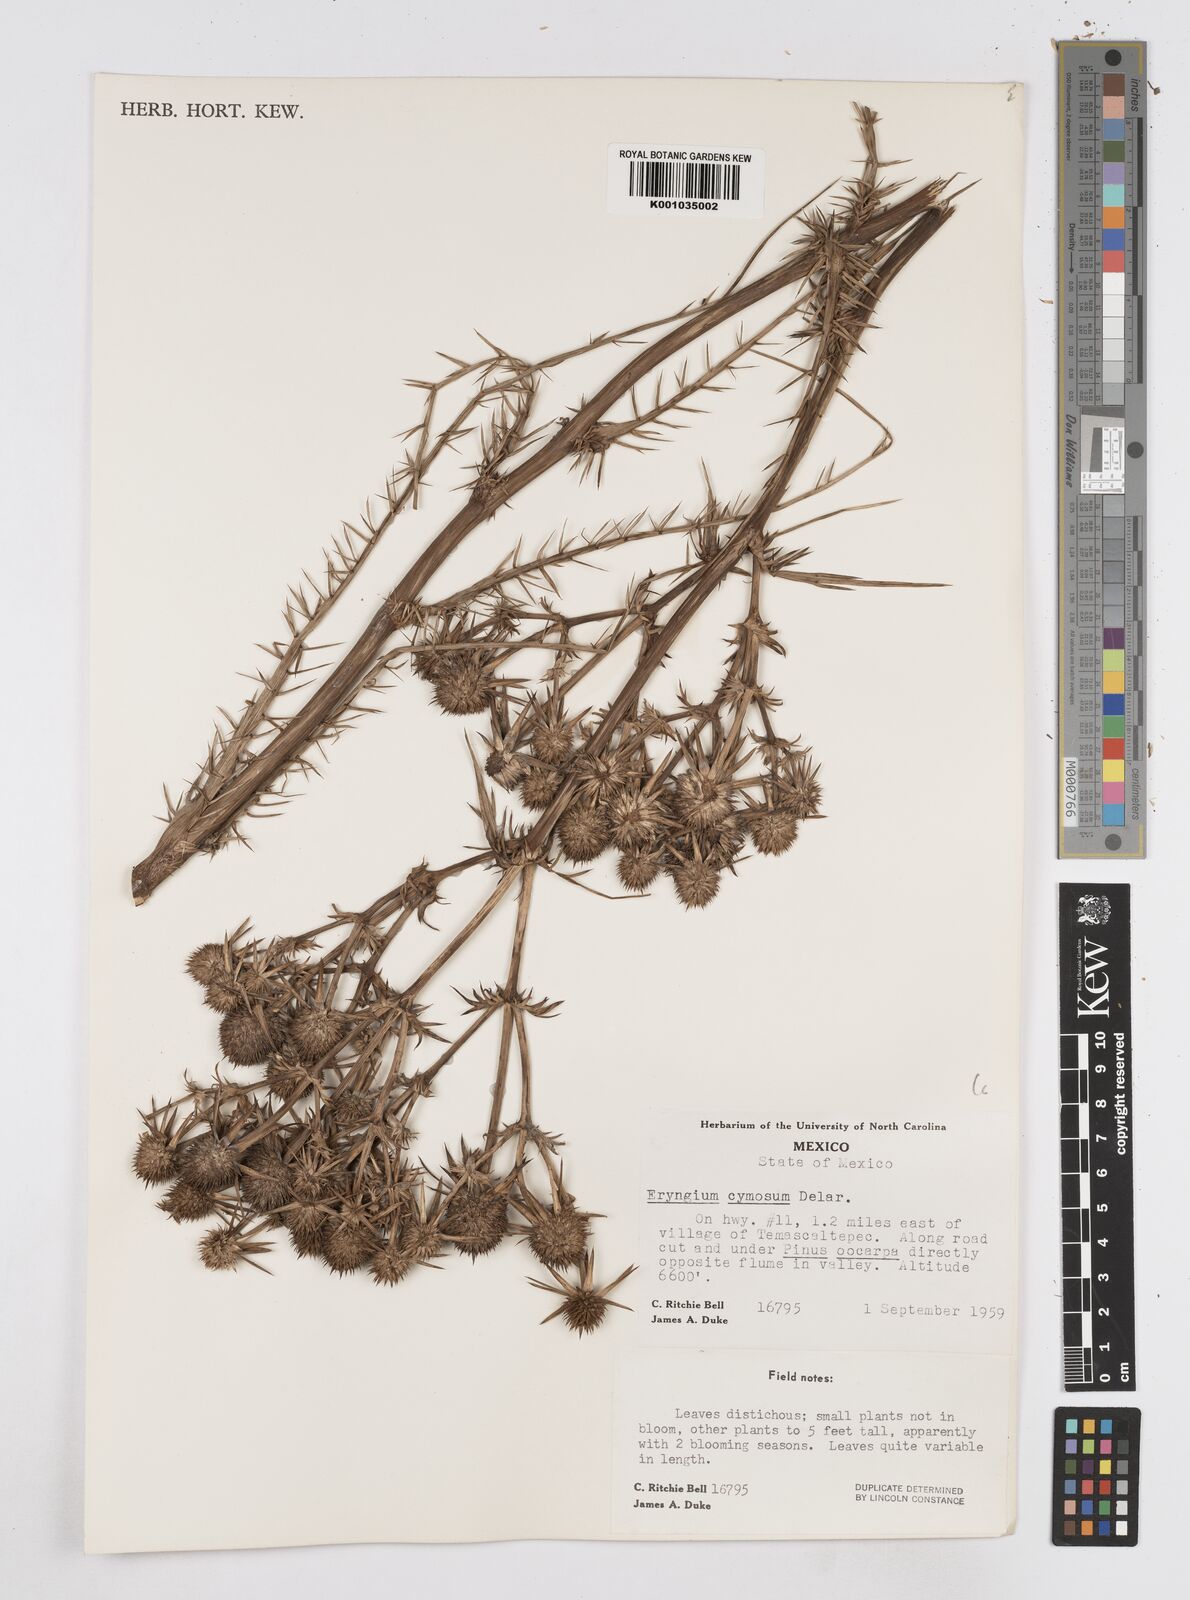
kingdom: Plantae
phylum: Tracheophyta
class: Magnoliopsida
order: Apiales
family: Apiaceae
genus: Eryngium
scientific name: Eryngium cymosum
